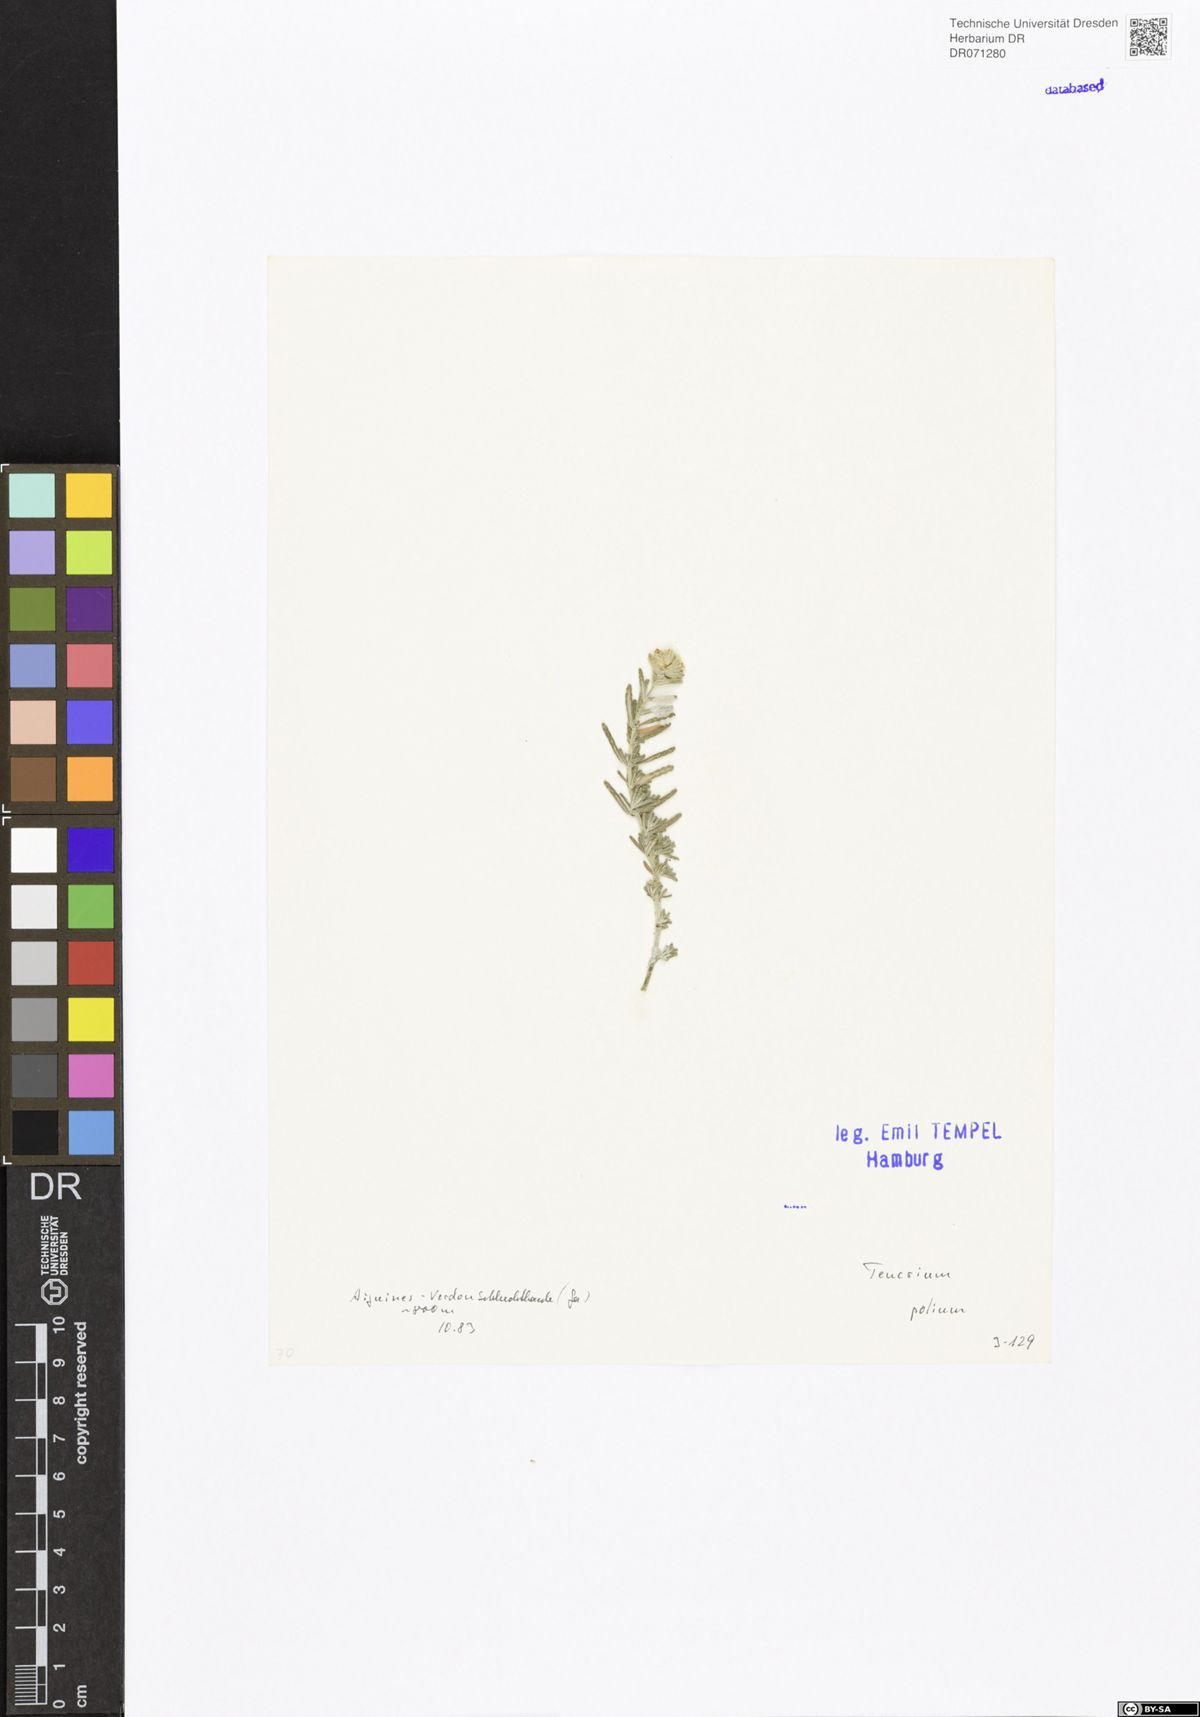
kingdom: Plantae
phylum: Tracheophyta
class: Magnoliopsida
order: Lamiales
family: Lamiaceae
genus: Teucrium
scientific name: Teucrium polium
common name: Poley
